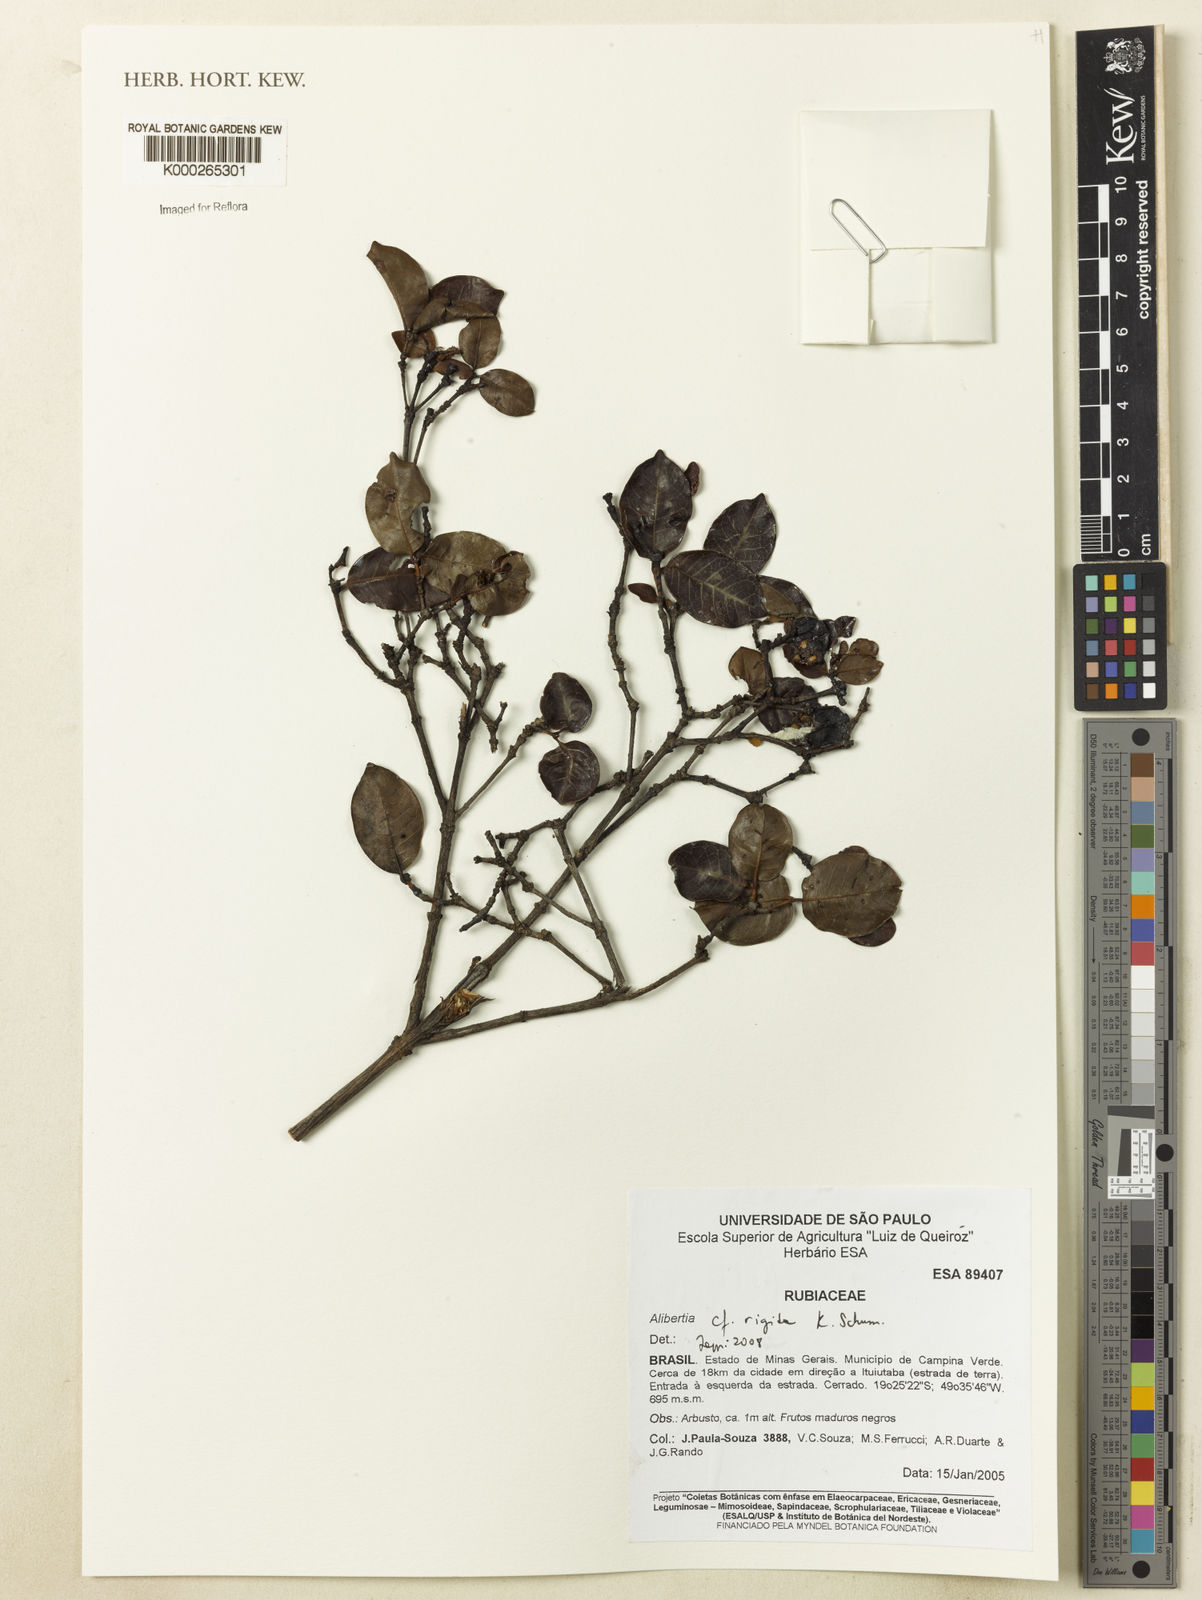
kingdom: Plantae
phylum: Tracheophyta
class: Magnoliopsida
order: Gentianales
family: Rubiaceae
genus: Cordiera
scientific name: Cordiera rigida
